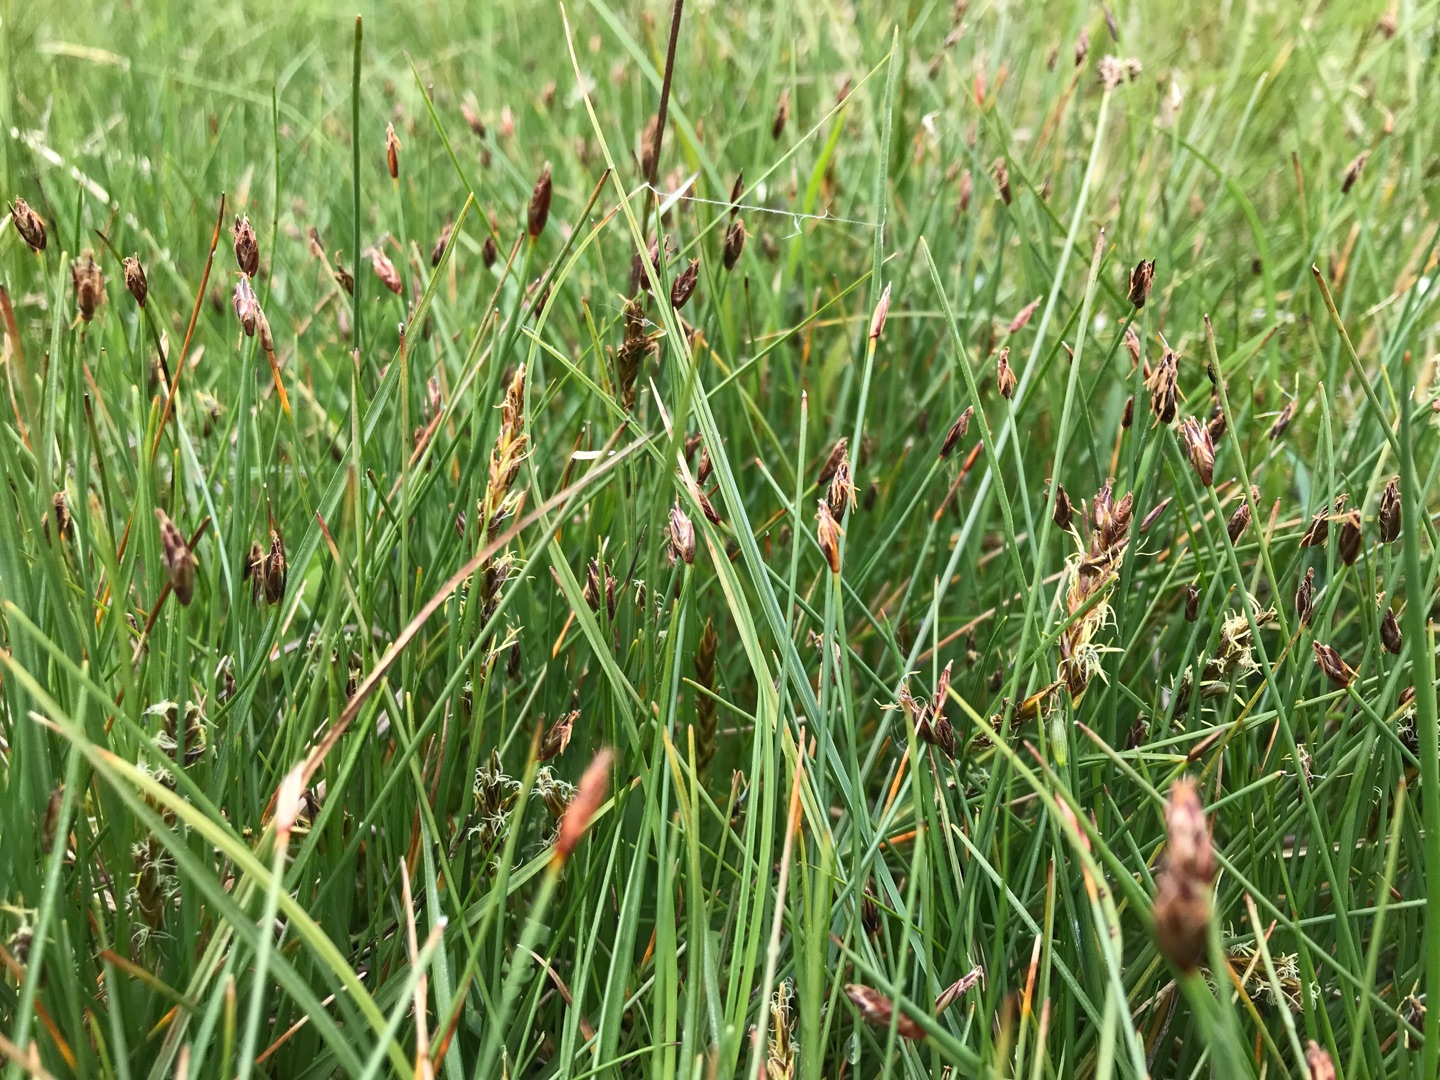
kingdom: Plantae
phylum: Tracheophyta
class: Liliopsida
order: Poales
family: Cyperaceae
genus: Eleocharis
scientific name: Eleocharis quinqueflora
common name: Fåblomstret kogleaks
